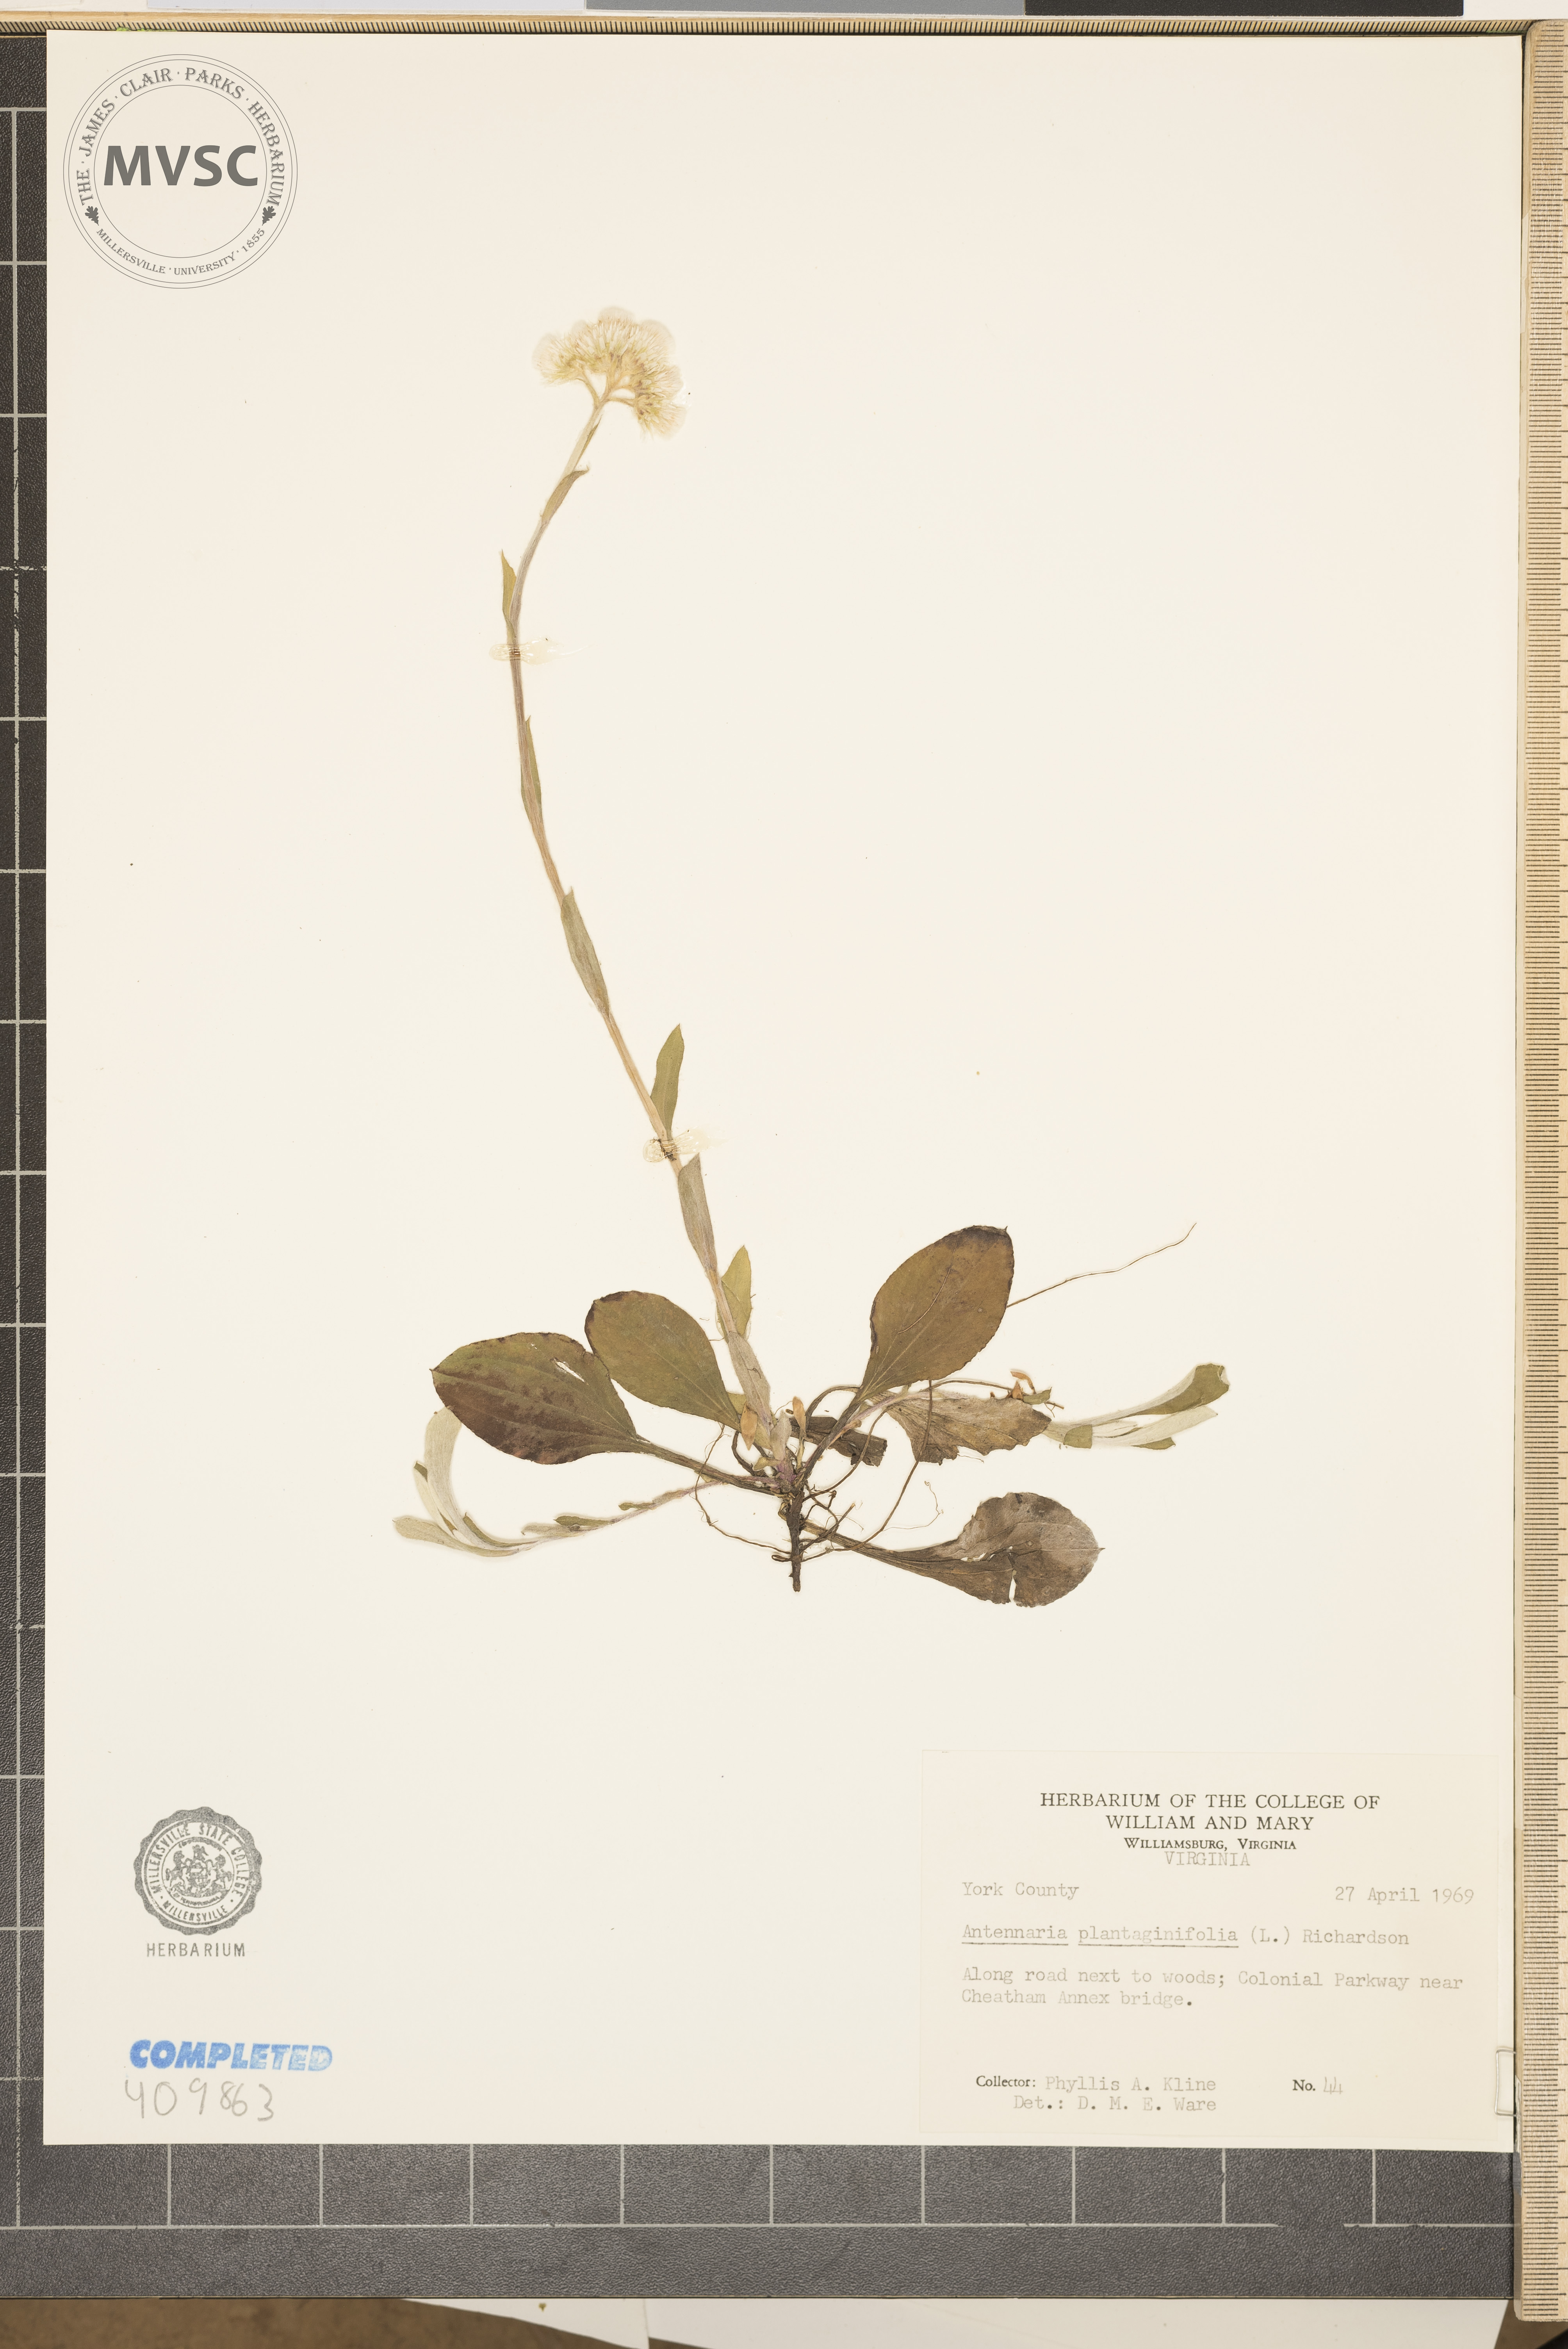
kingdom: Plantae
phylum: Tracheophyta
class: Magnoliopsida
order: Asterales
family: Asteraceae
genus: Antennaria
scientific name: Antennaria plantaginifolia
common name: Plantain-leaved pussytoes
